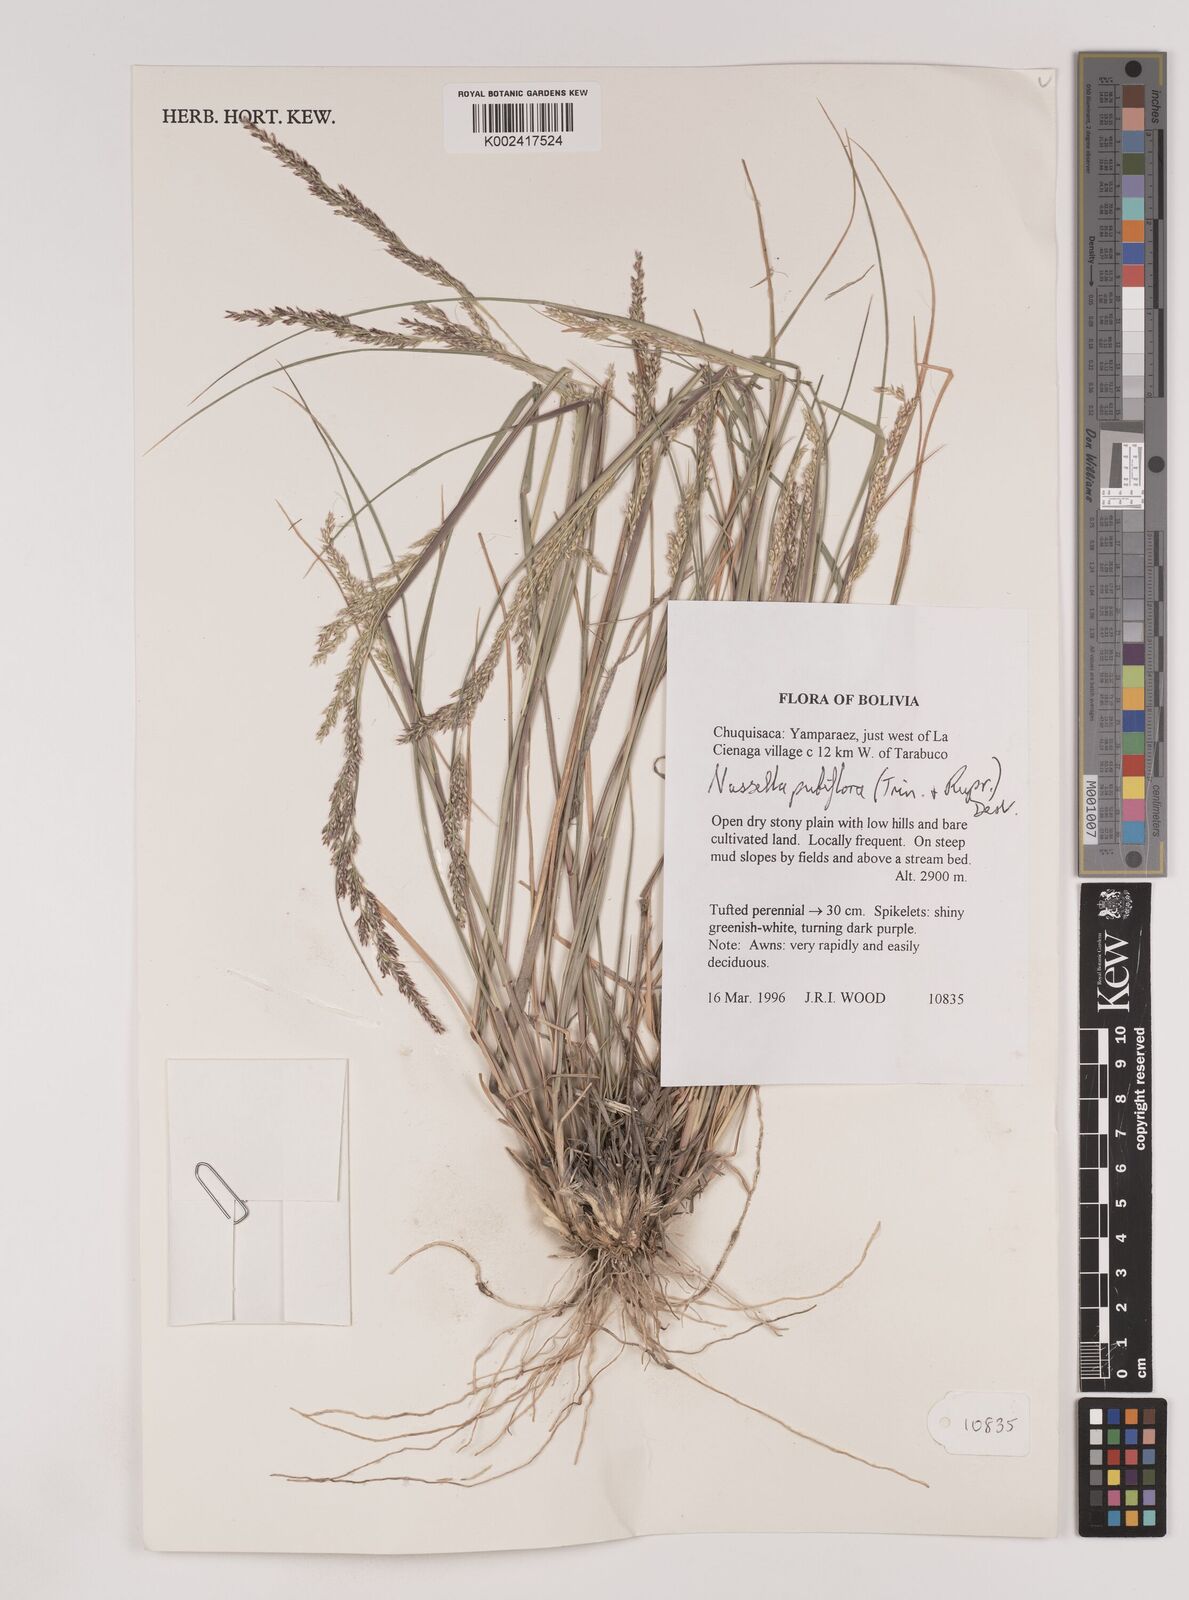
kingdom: Plantae
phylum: Tracheophyta
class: Liliopsida
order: Poales
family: Poaceae
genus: Nassella
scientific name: Nassella pubiflora
